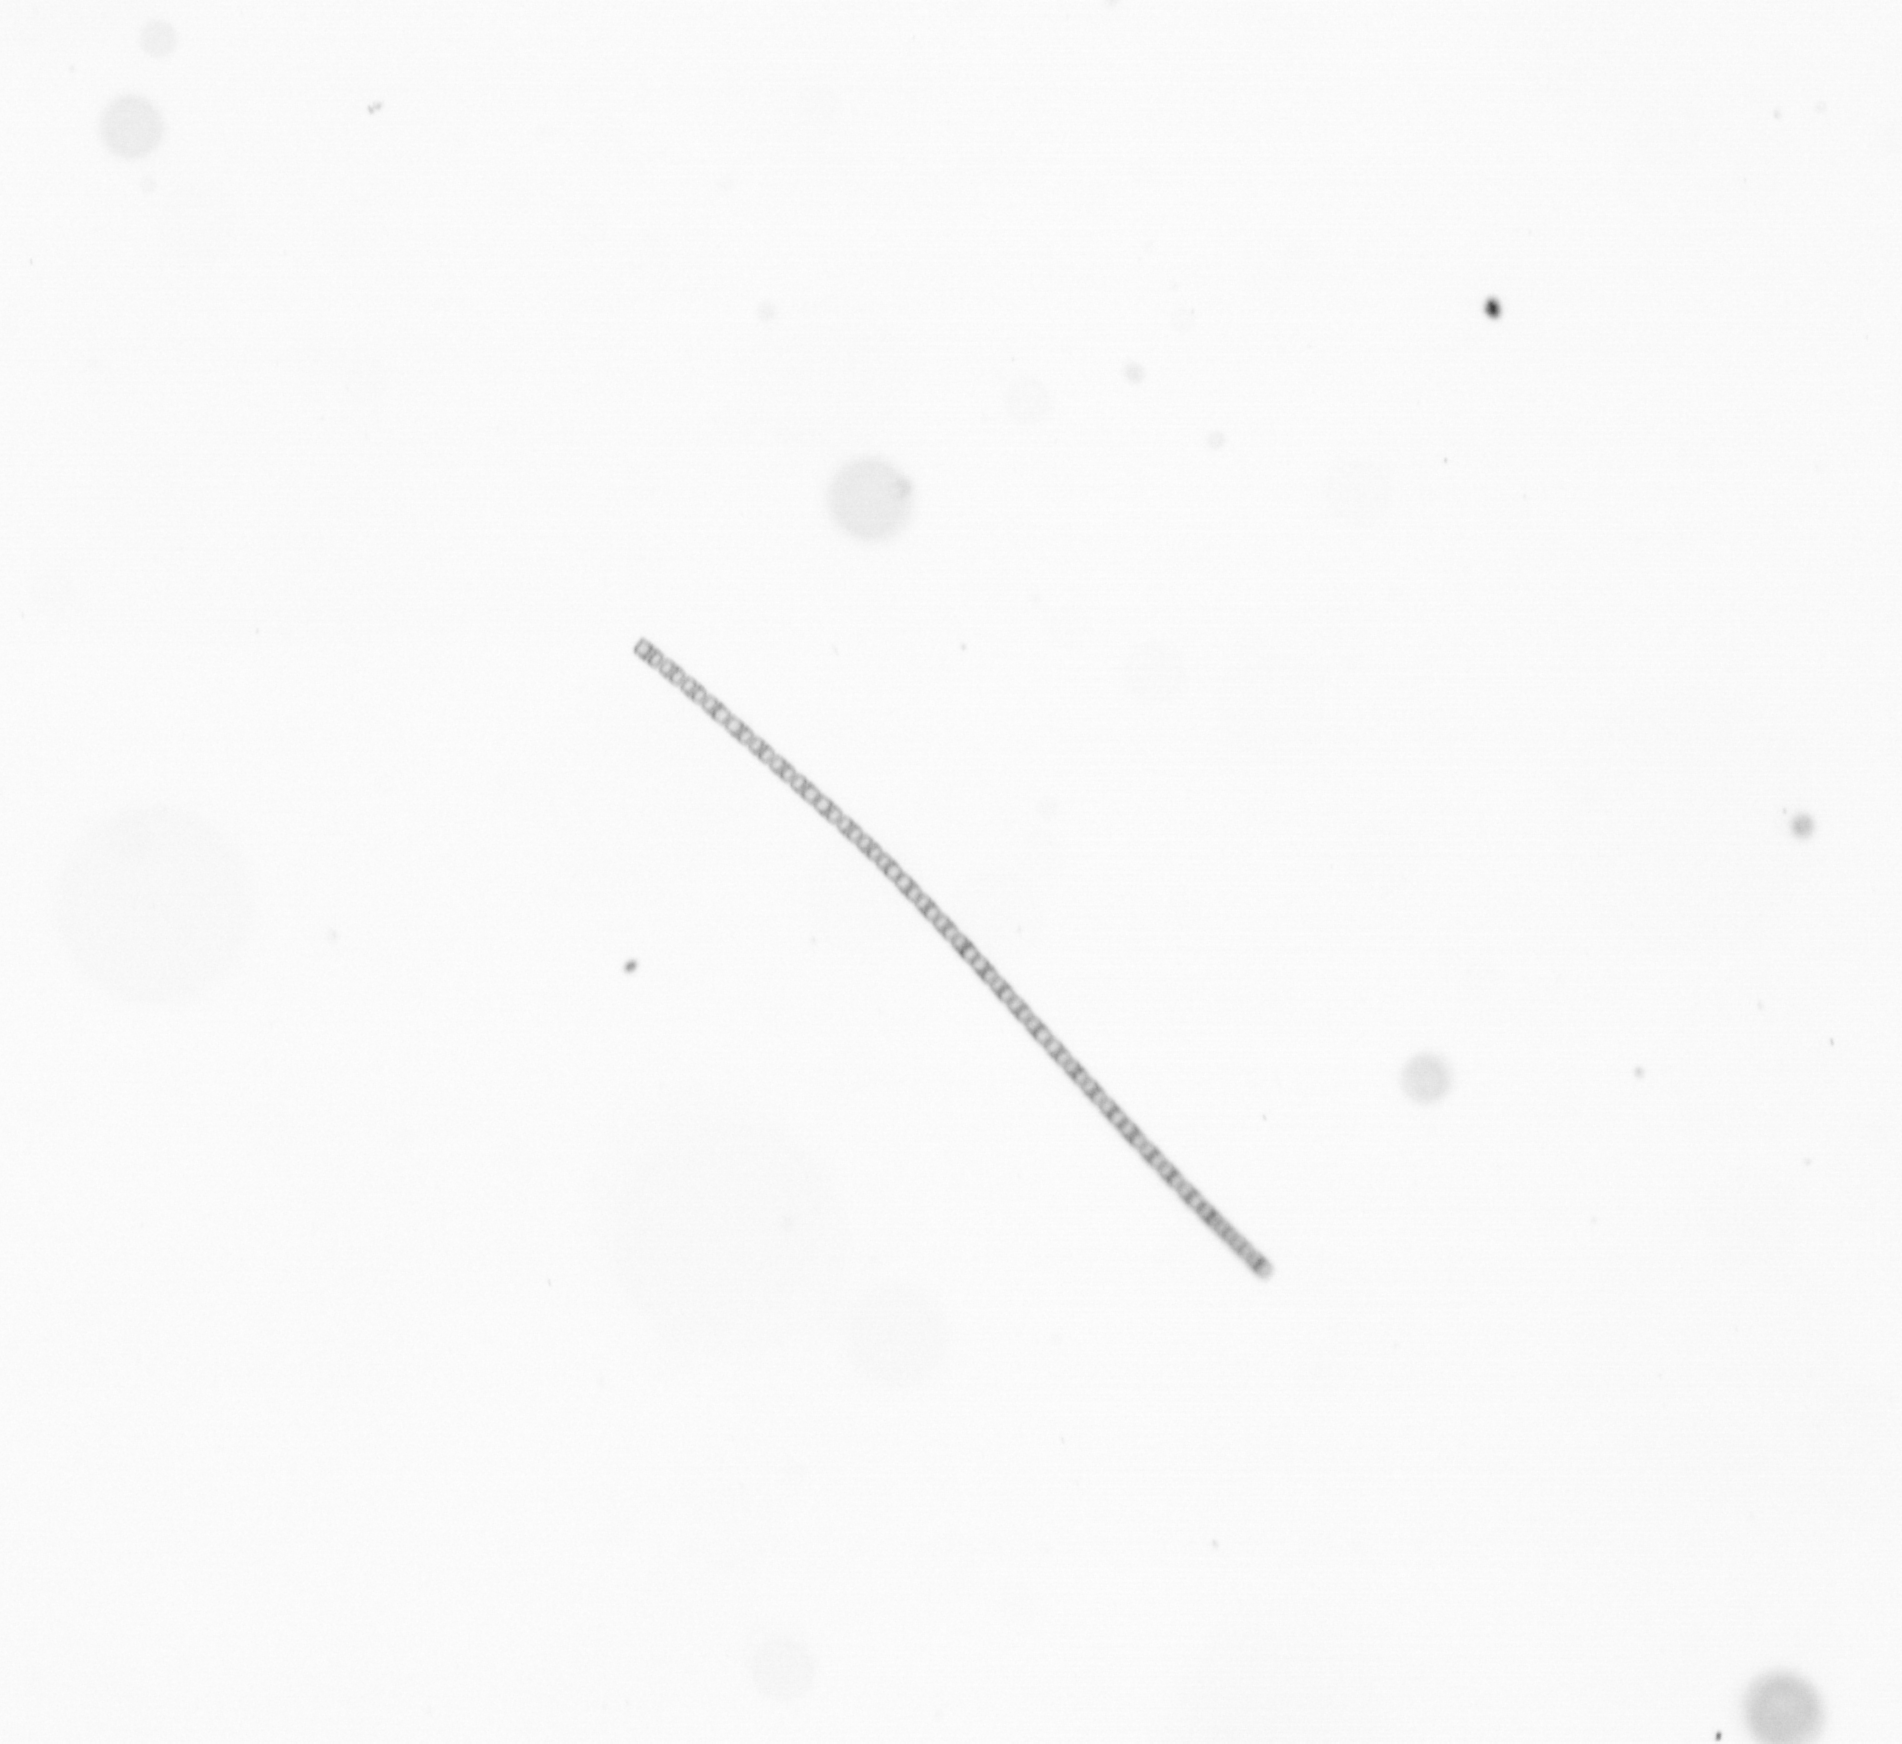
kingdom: Chromista
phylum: Ochrophyta
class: Bacillariophyceae
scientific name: Bacillariophyceae
